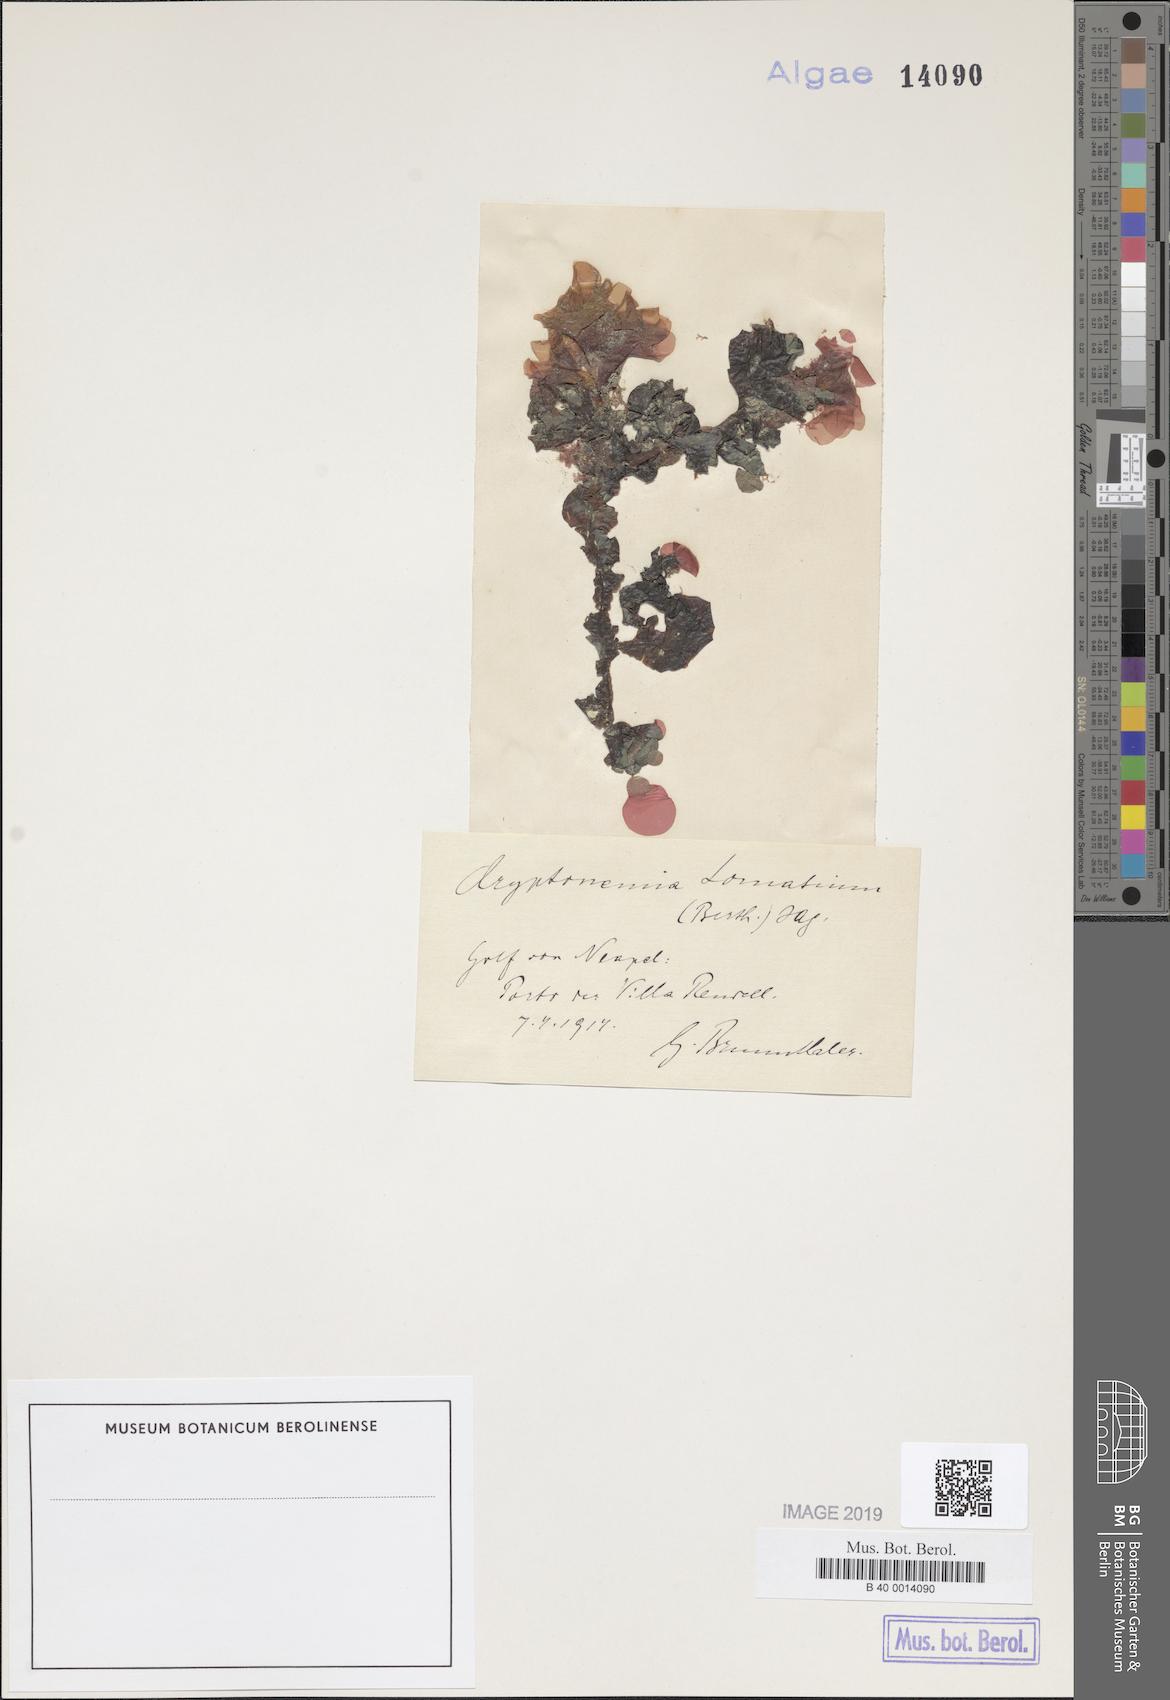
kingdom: Plantae
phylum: Rhodophyta
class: Florideophyceae
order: Halymeniales
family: Halymeniaceae
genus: Cryptonemia
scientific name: Cryptonemia lomation
